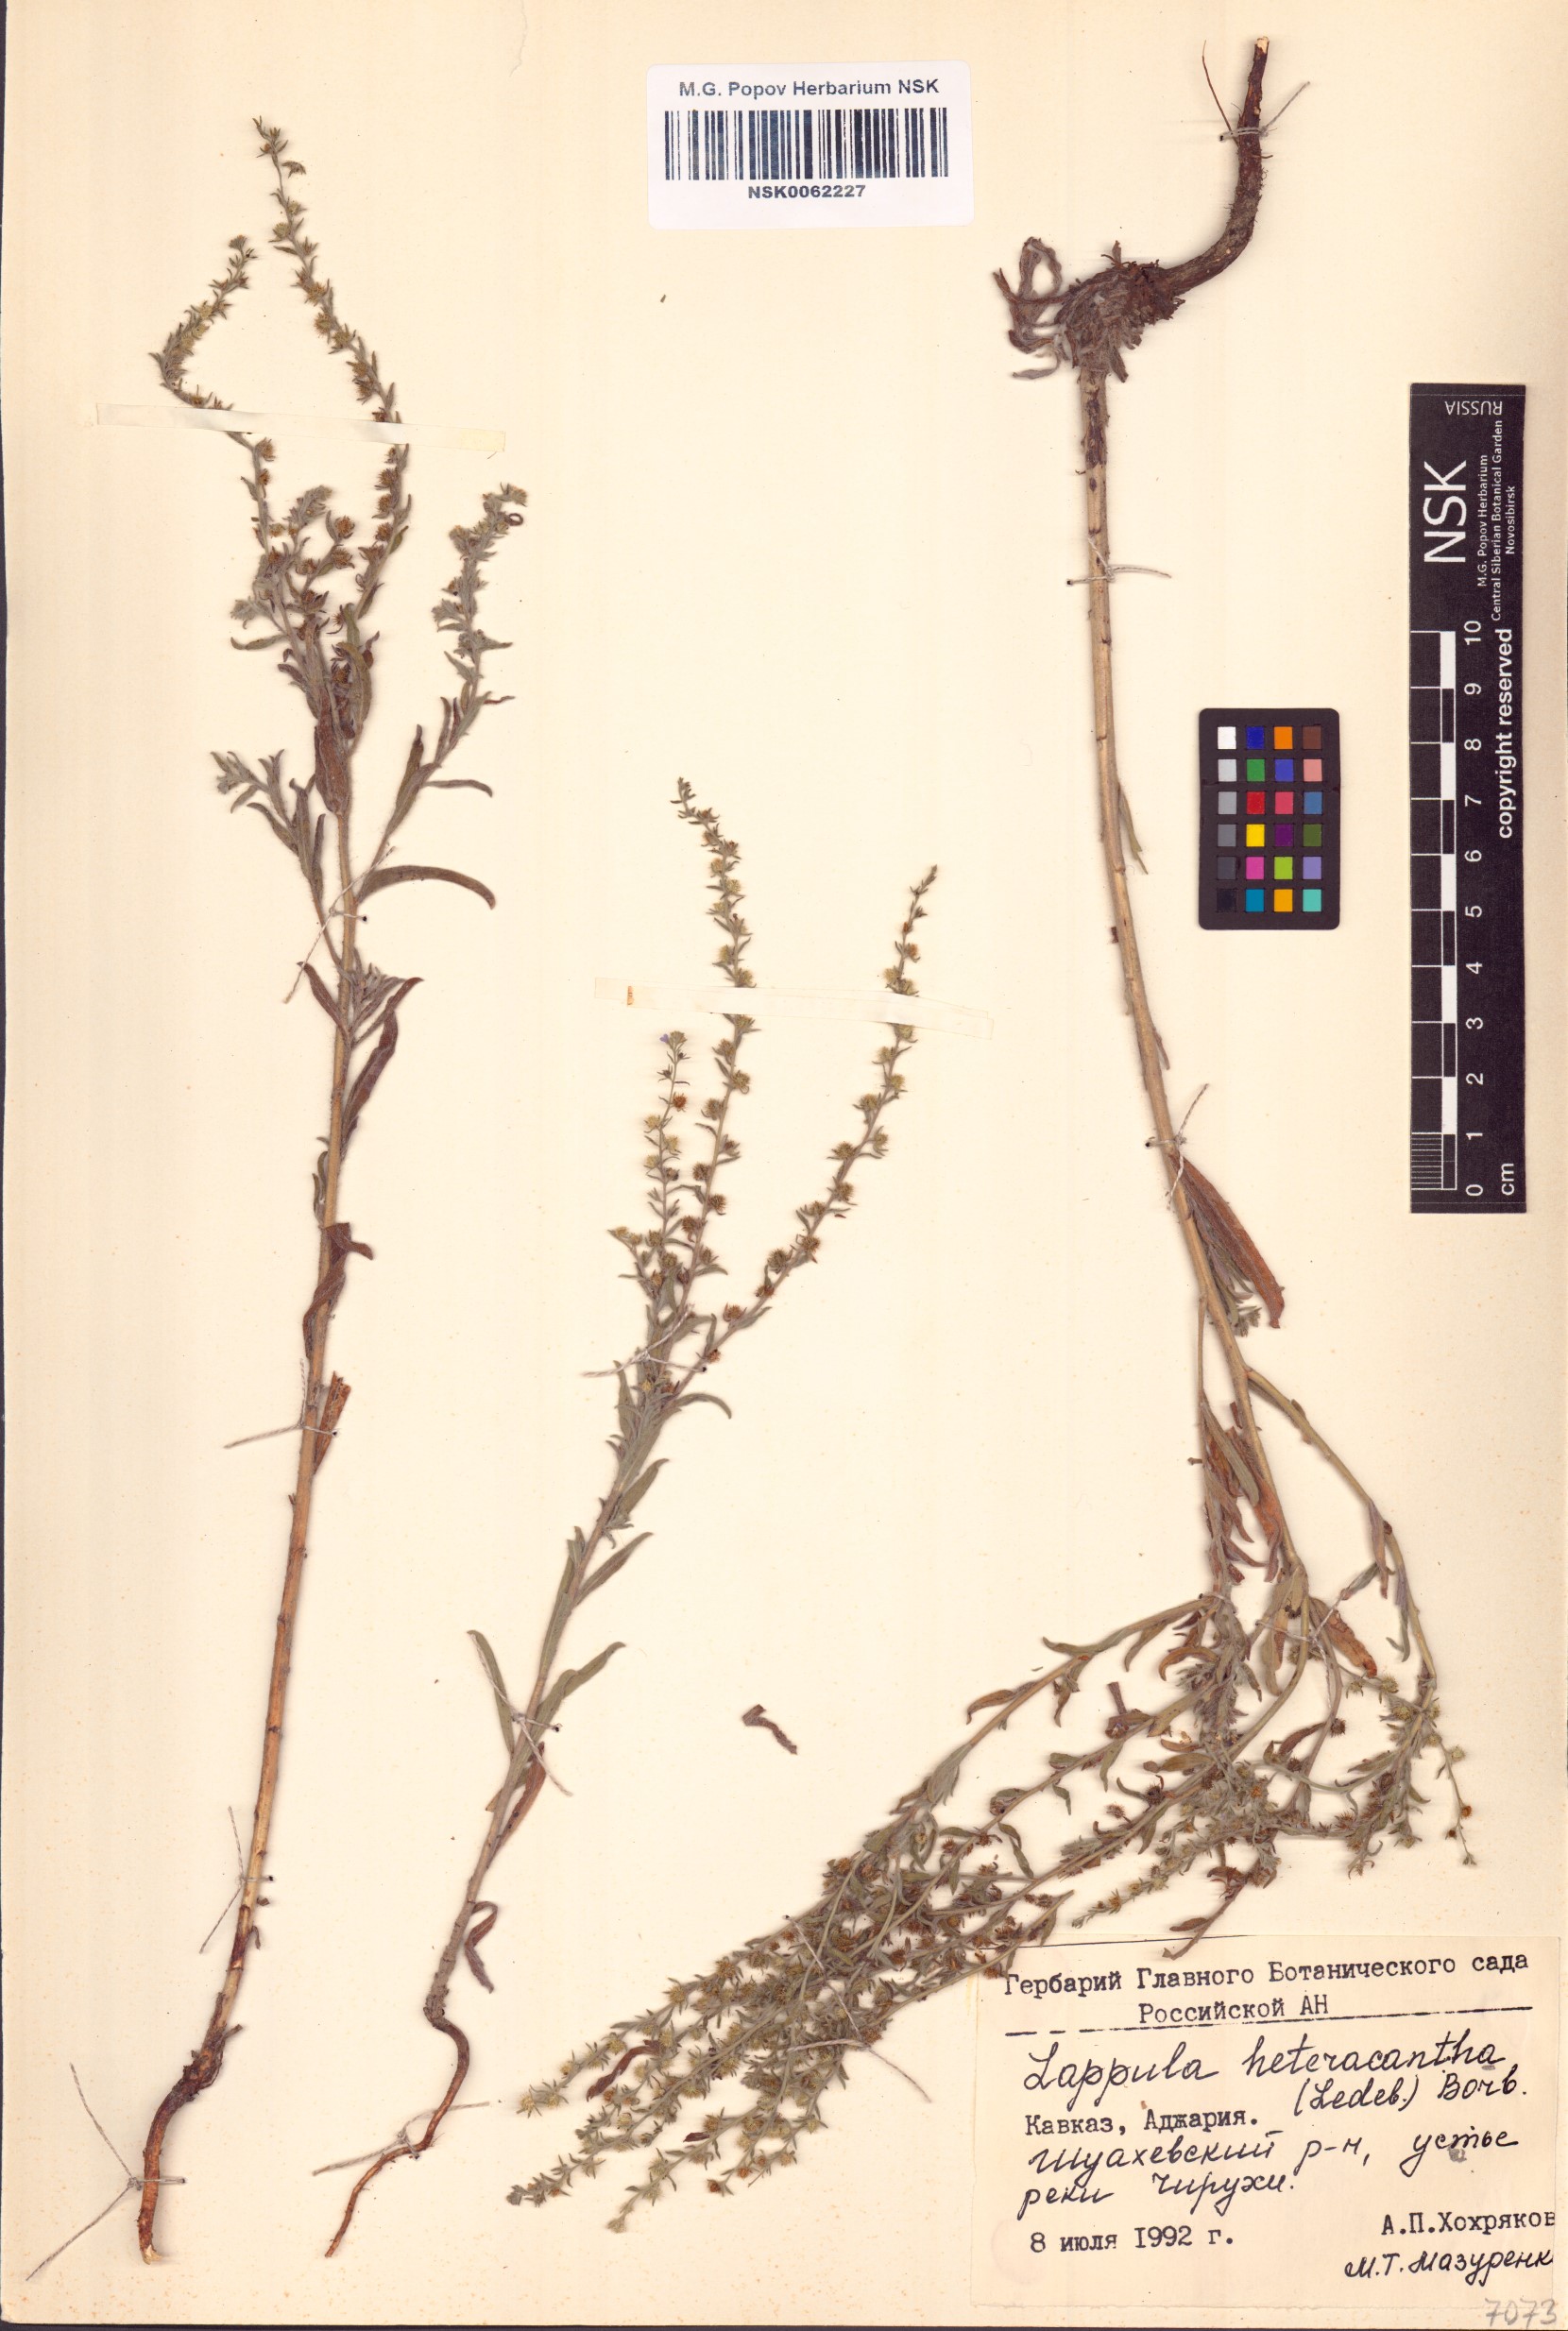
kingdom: Plantae
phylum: Tracheophyta
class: Magnoliopsida
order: Boraginales
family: Boraginaceae
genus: Lappula
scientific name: Lappula heteracantha
